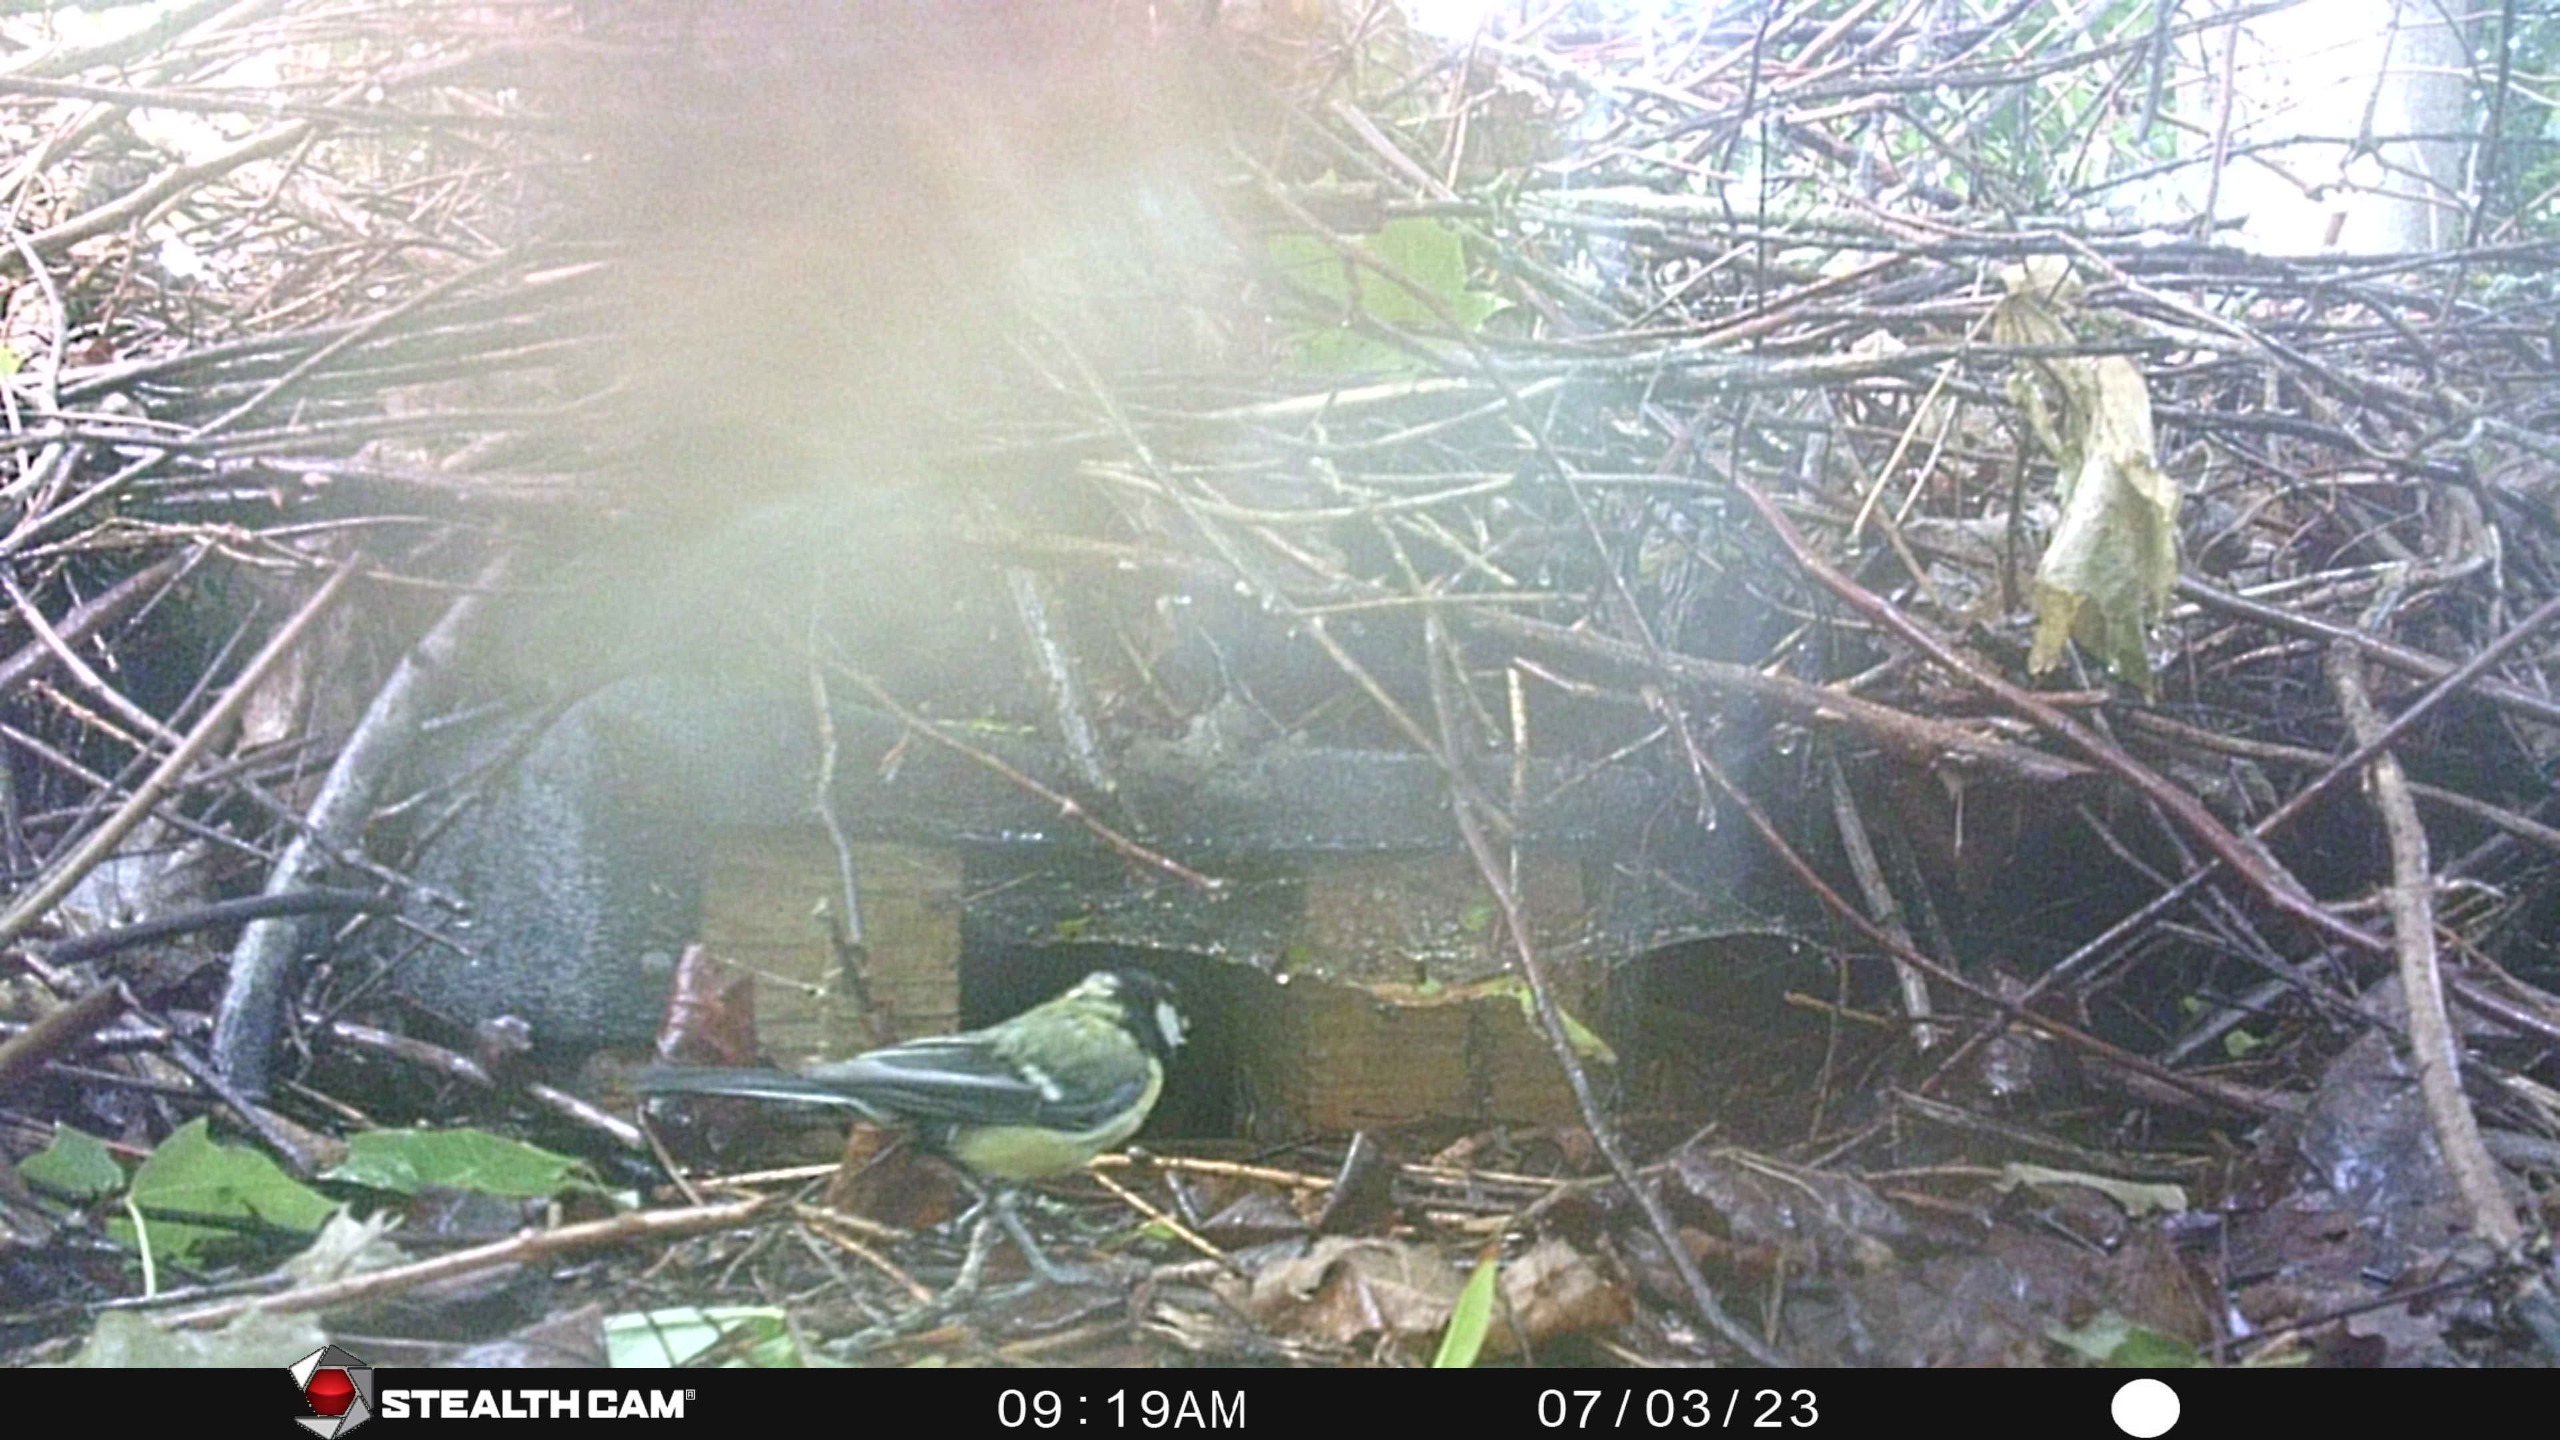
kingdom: Animalia
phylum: Chordata
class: Aves
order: Passeriformes
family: Paridae
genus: Parus
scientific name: Parus major
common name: Musvit
